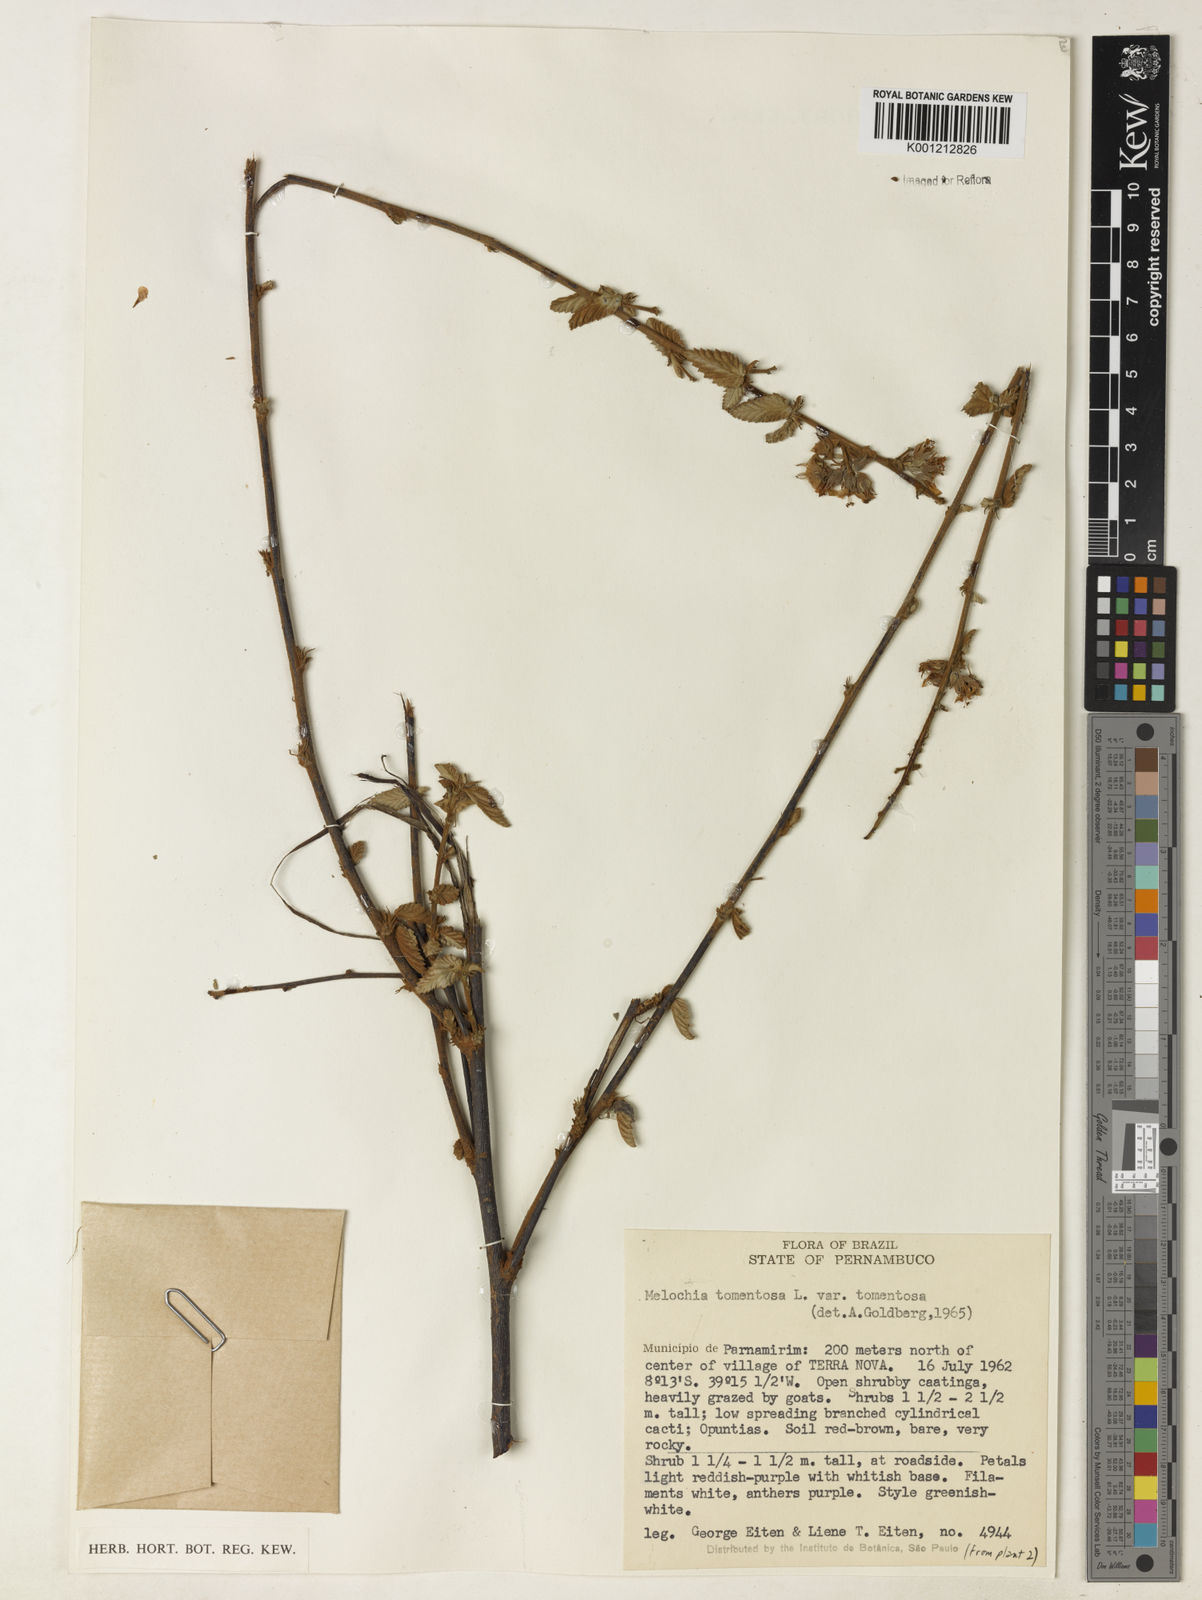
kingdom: Plantae
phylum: Tracheophyta
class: Magnoliopsida
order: Malvales
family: Malvaceae
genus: Melochia
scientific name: Melochia tomentosa
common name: Black torch
